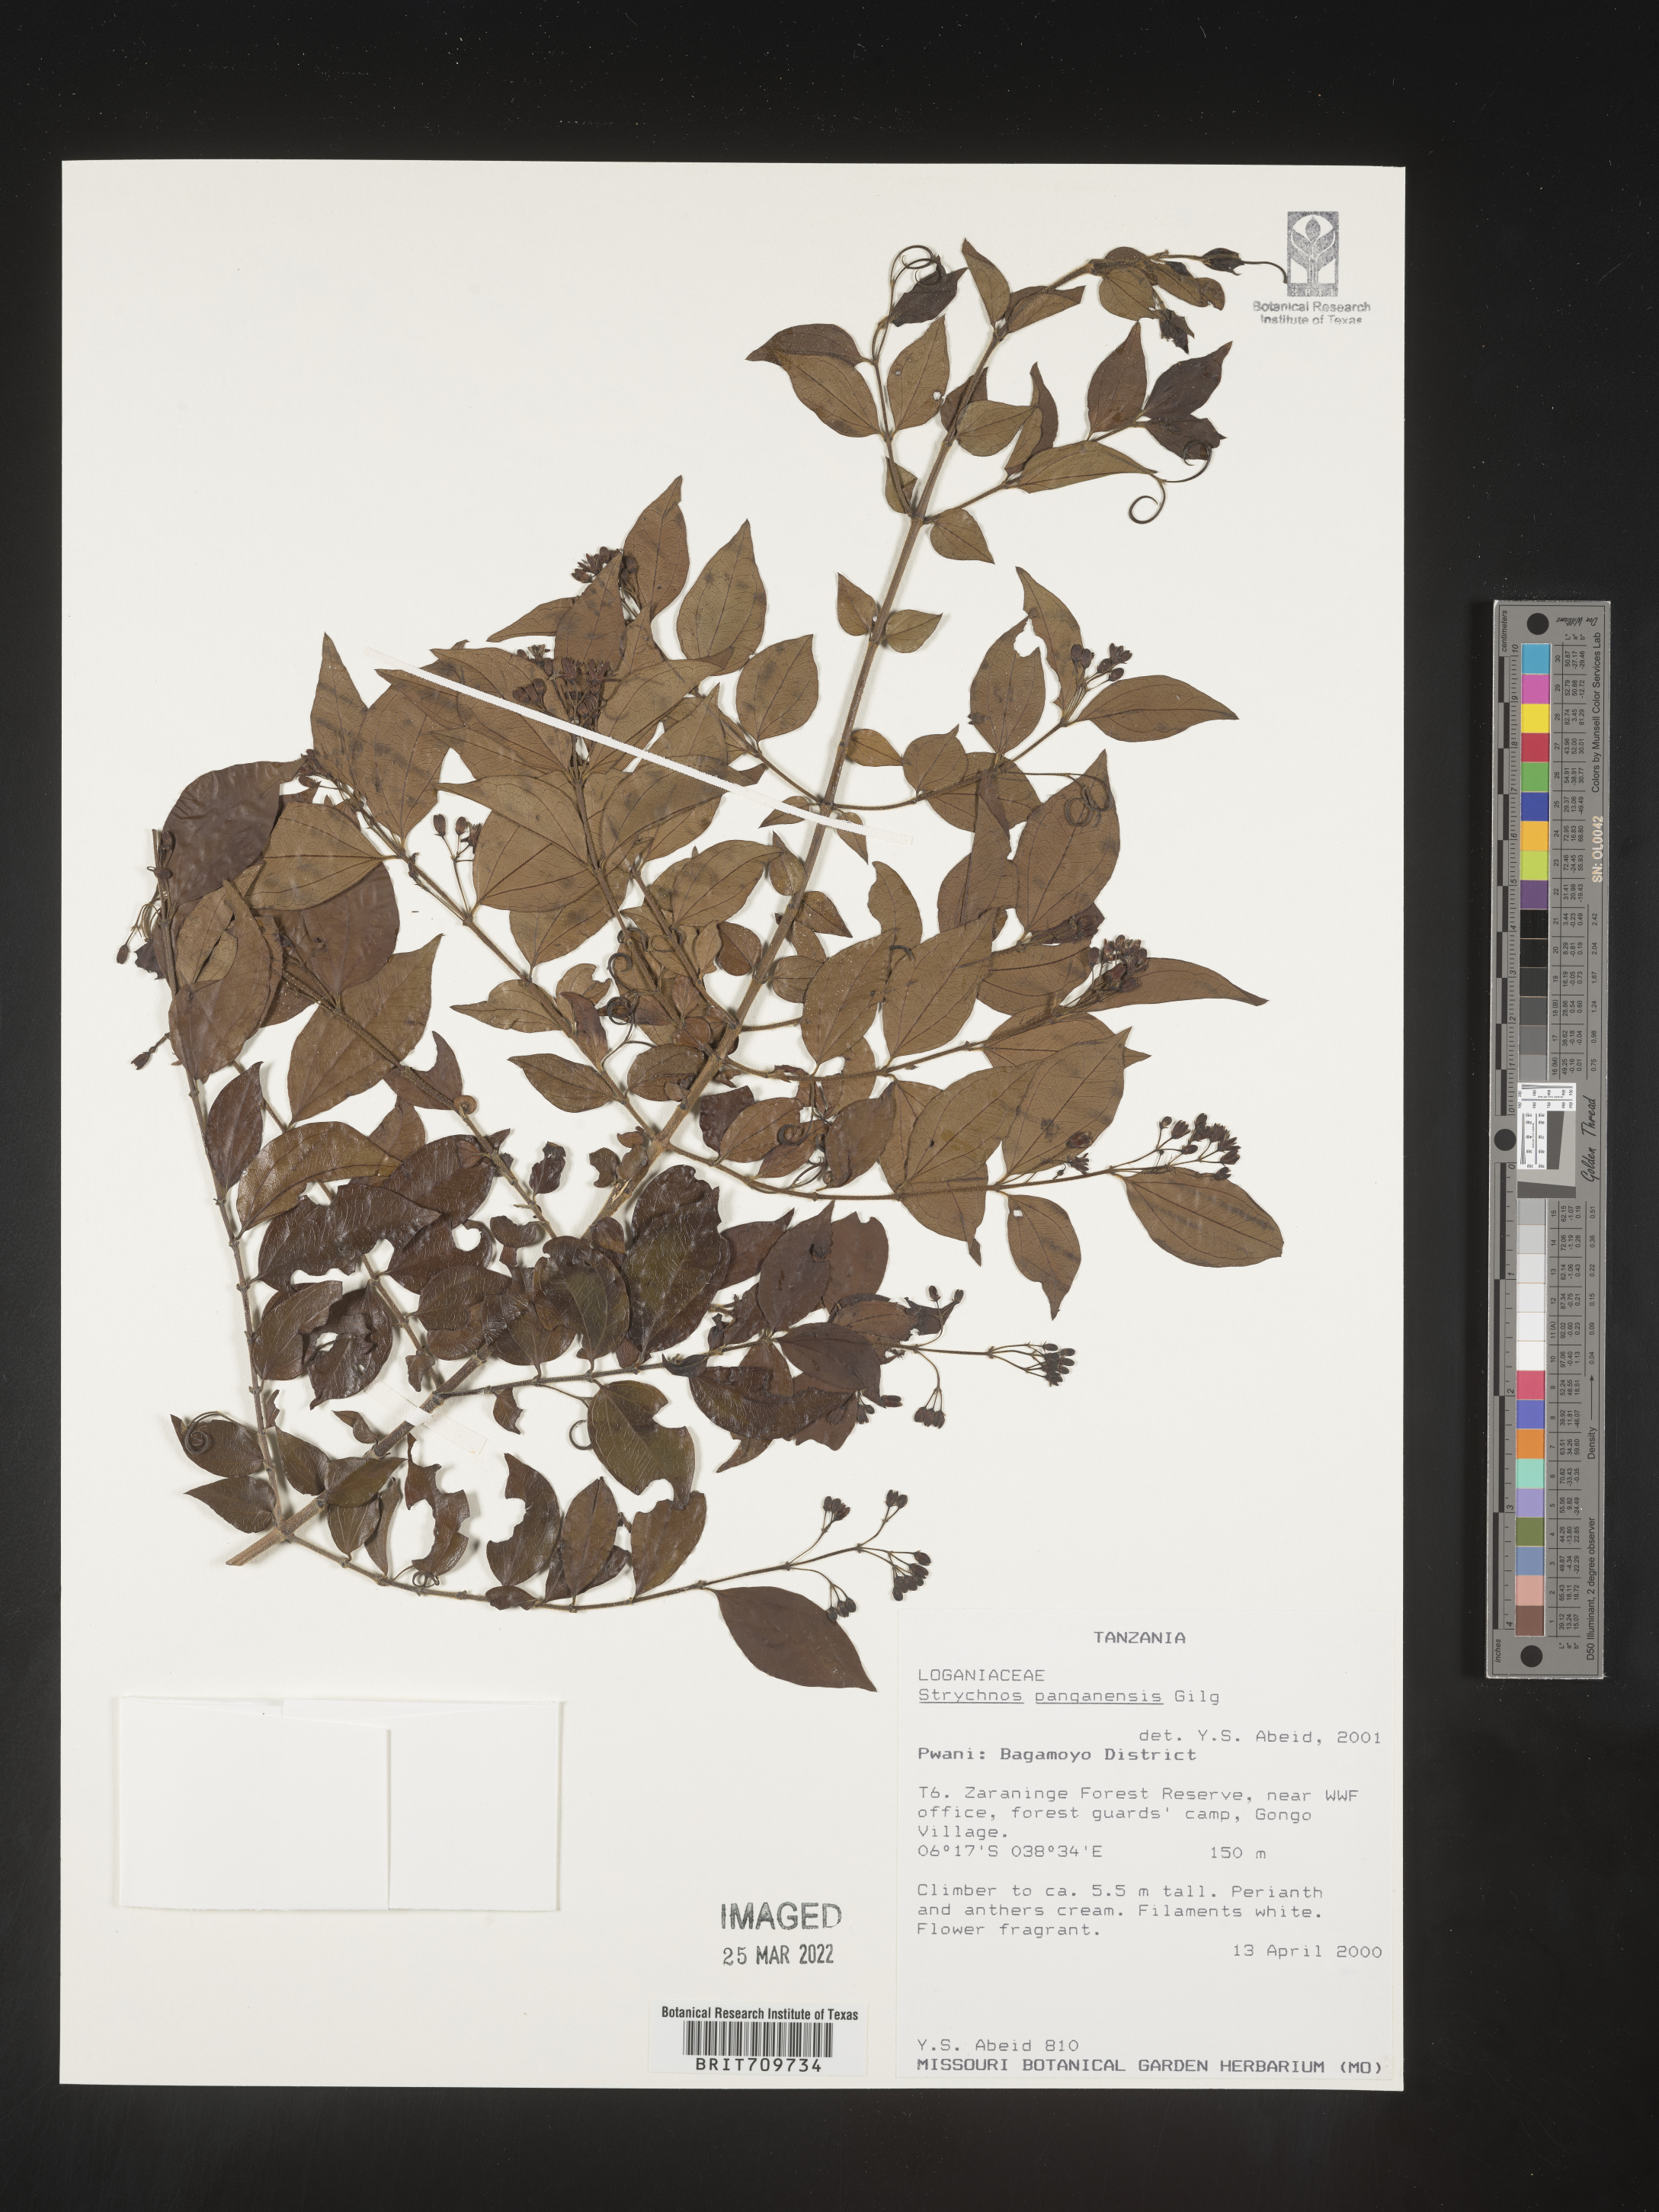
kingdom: Plantae
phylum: Tracheophyta
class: Magnoliopsida
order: Gentianales
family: Loganiaceae
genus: Strychnos
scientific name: Strychnos
